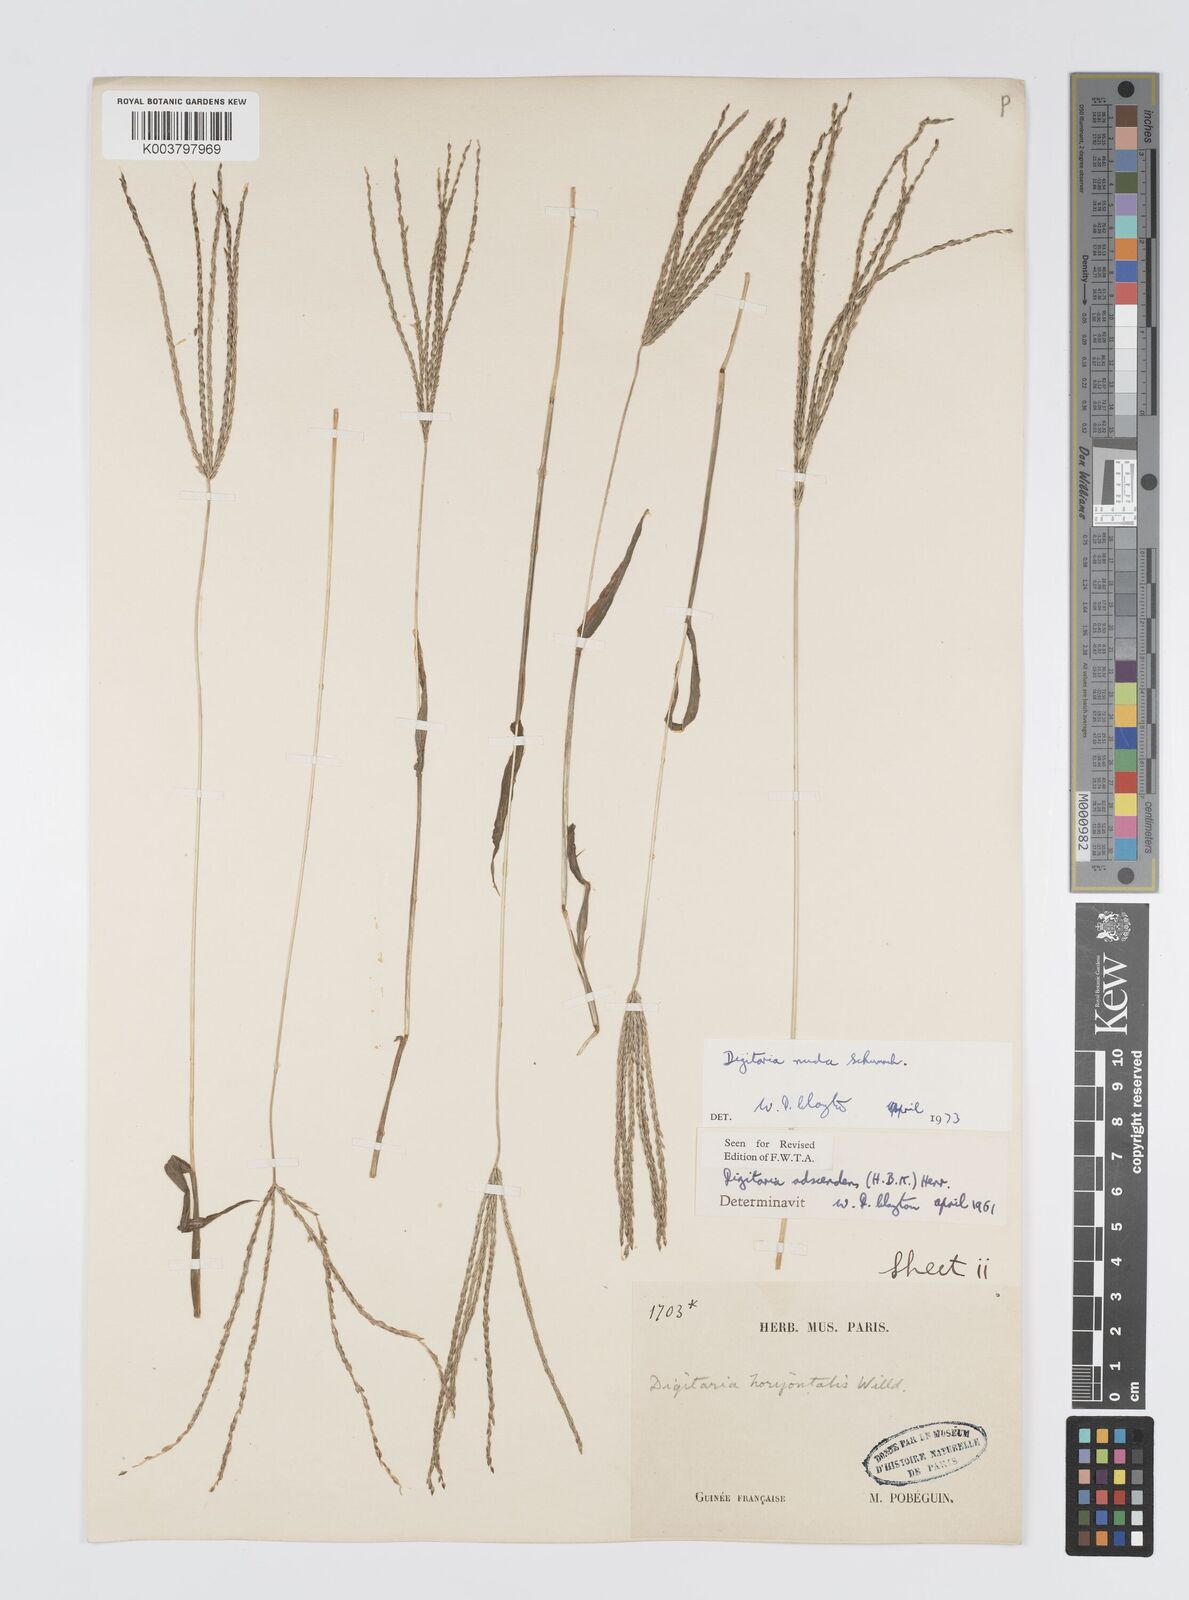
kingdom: Plantae
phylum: Tracheophyta
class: Liliopsida
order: Poales
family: Poaceae
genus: Digitaria
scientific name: Digitaria nuda
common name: Naked crabgrass
